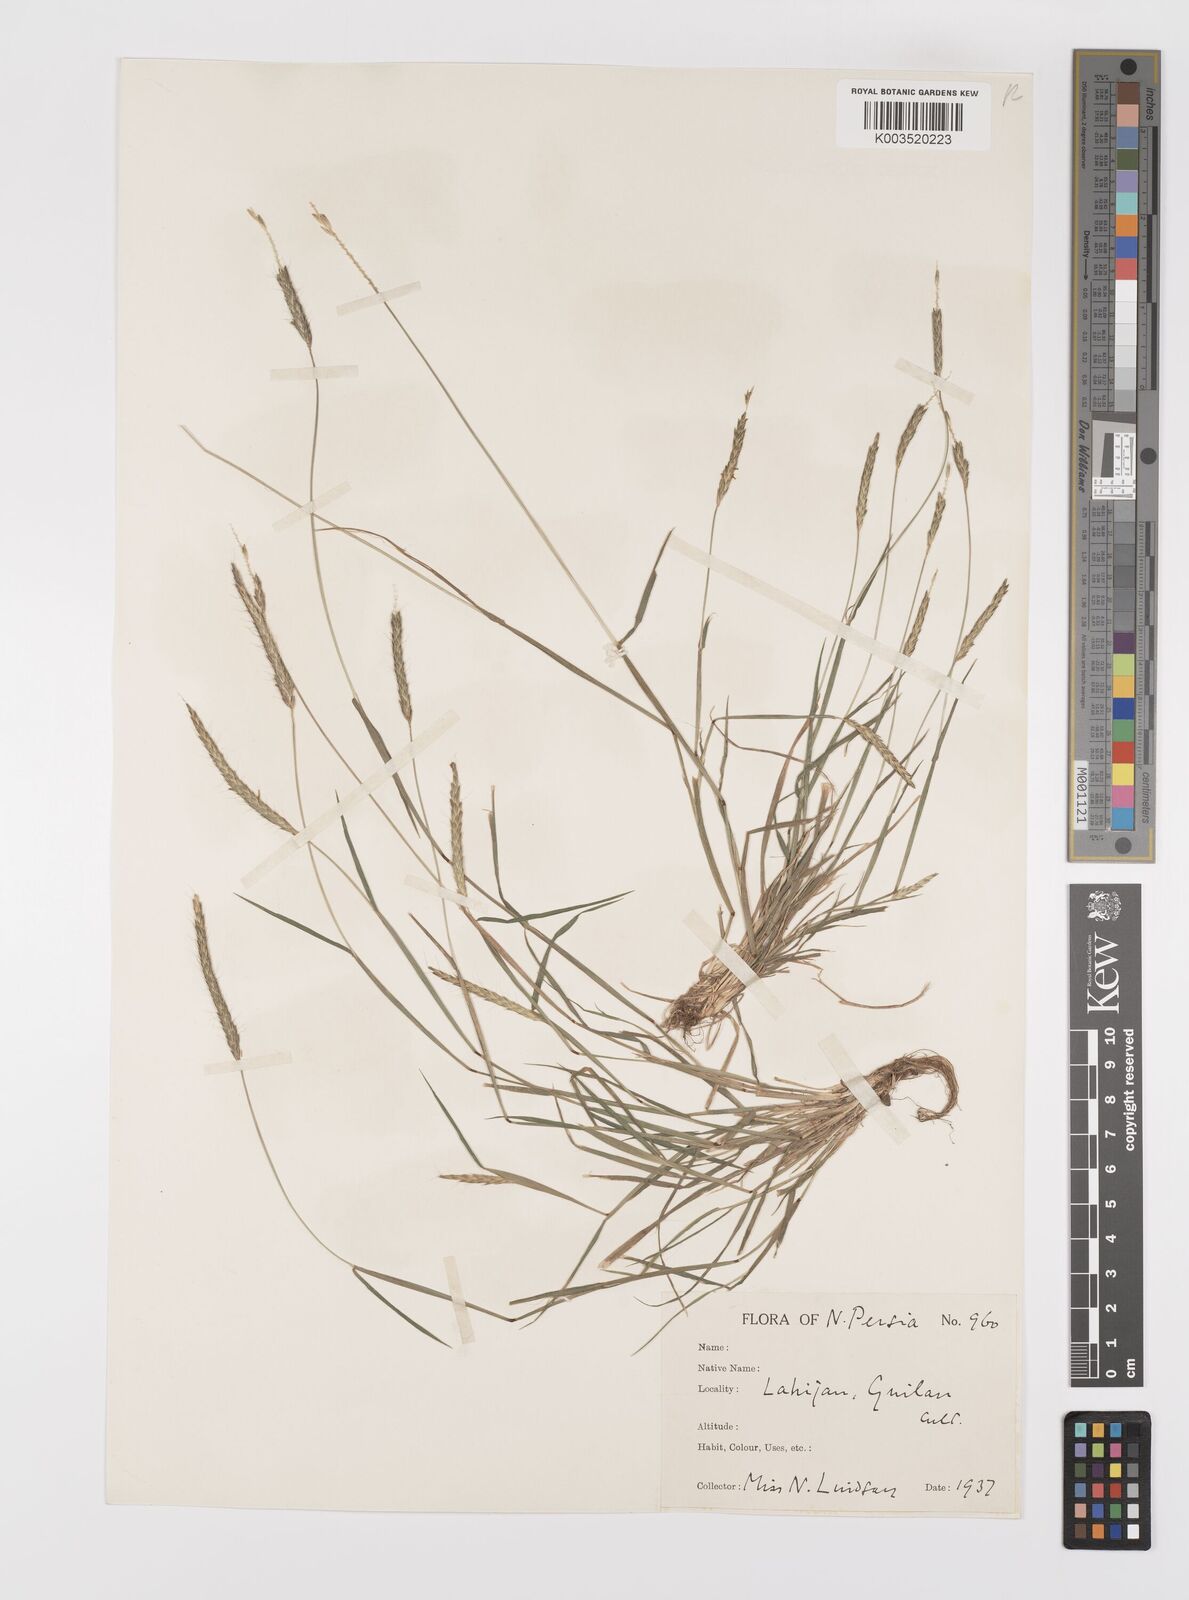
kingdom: Plantae
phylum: Tracheophyta
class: Liliopsida
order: Poales
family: Poaceae
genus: Alopecurus
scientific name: Alopecurus myosuroides
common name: Black-grass
